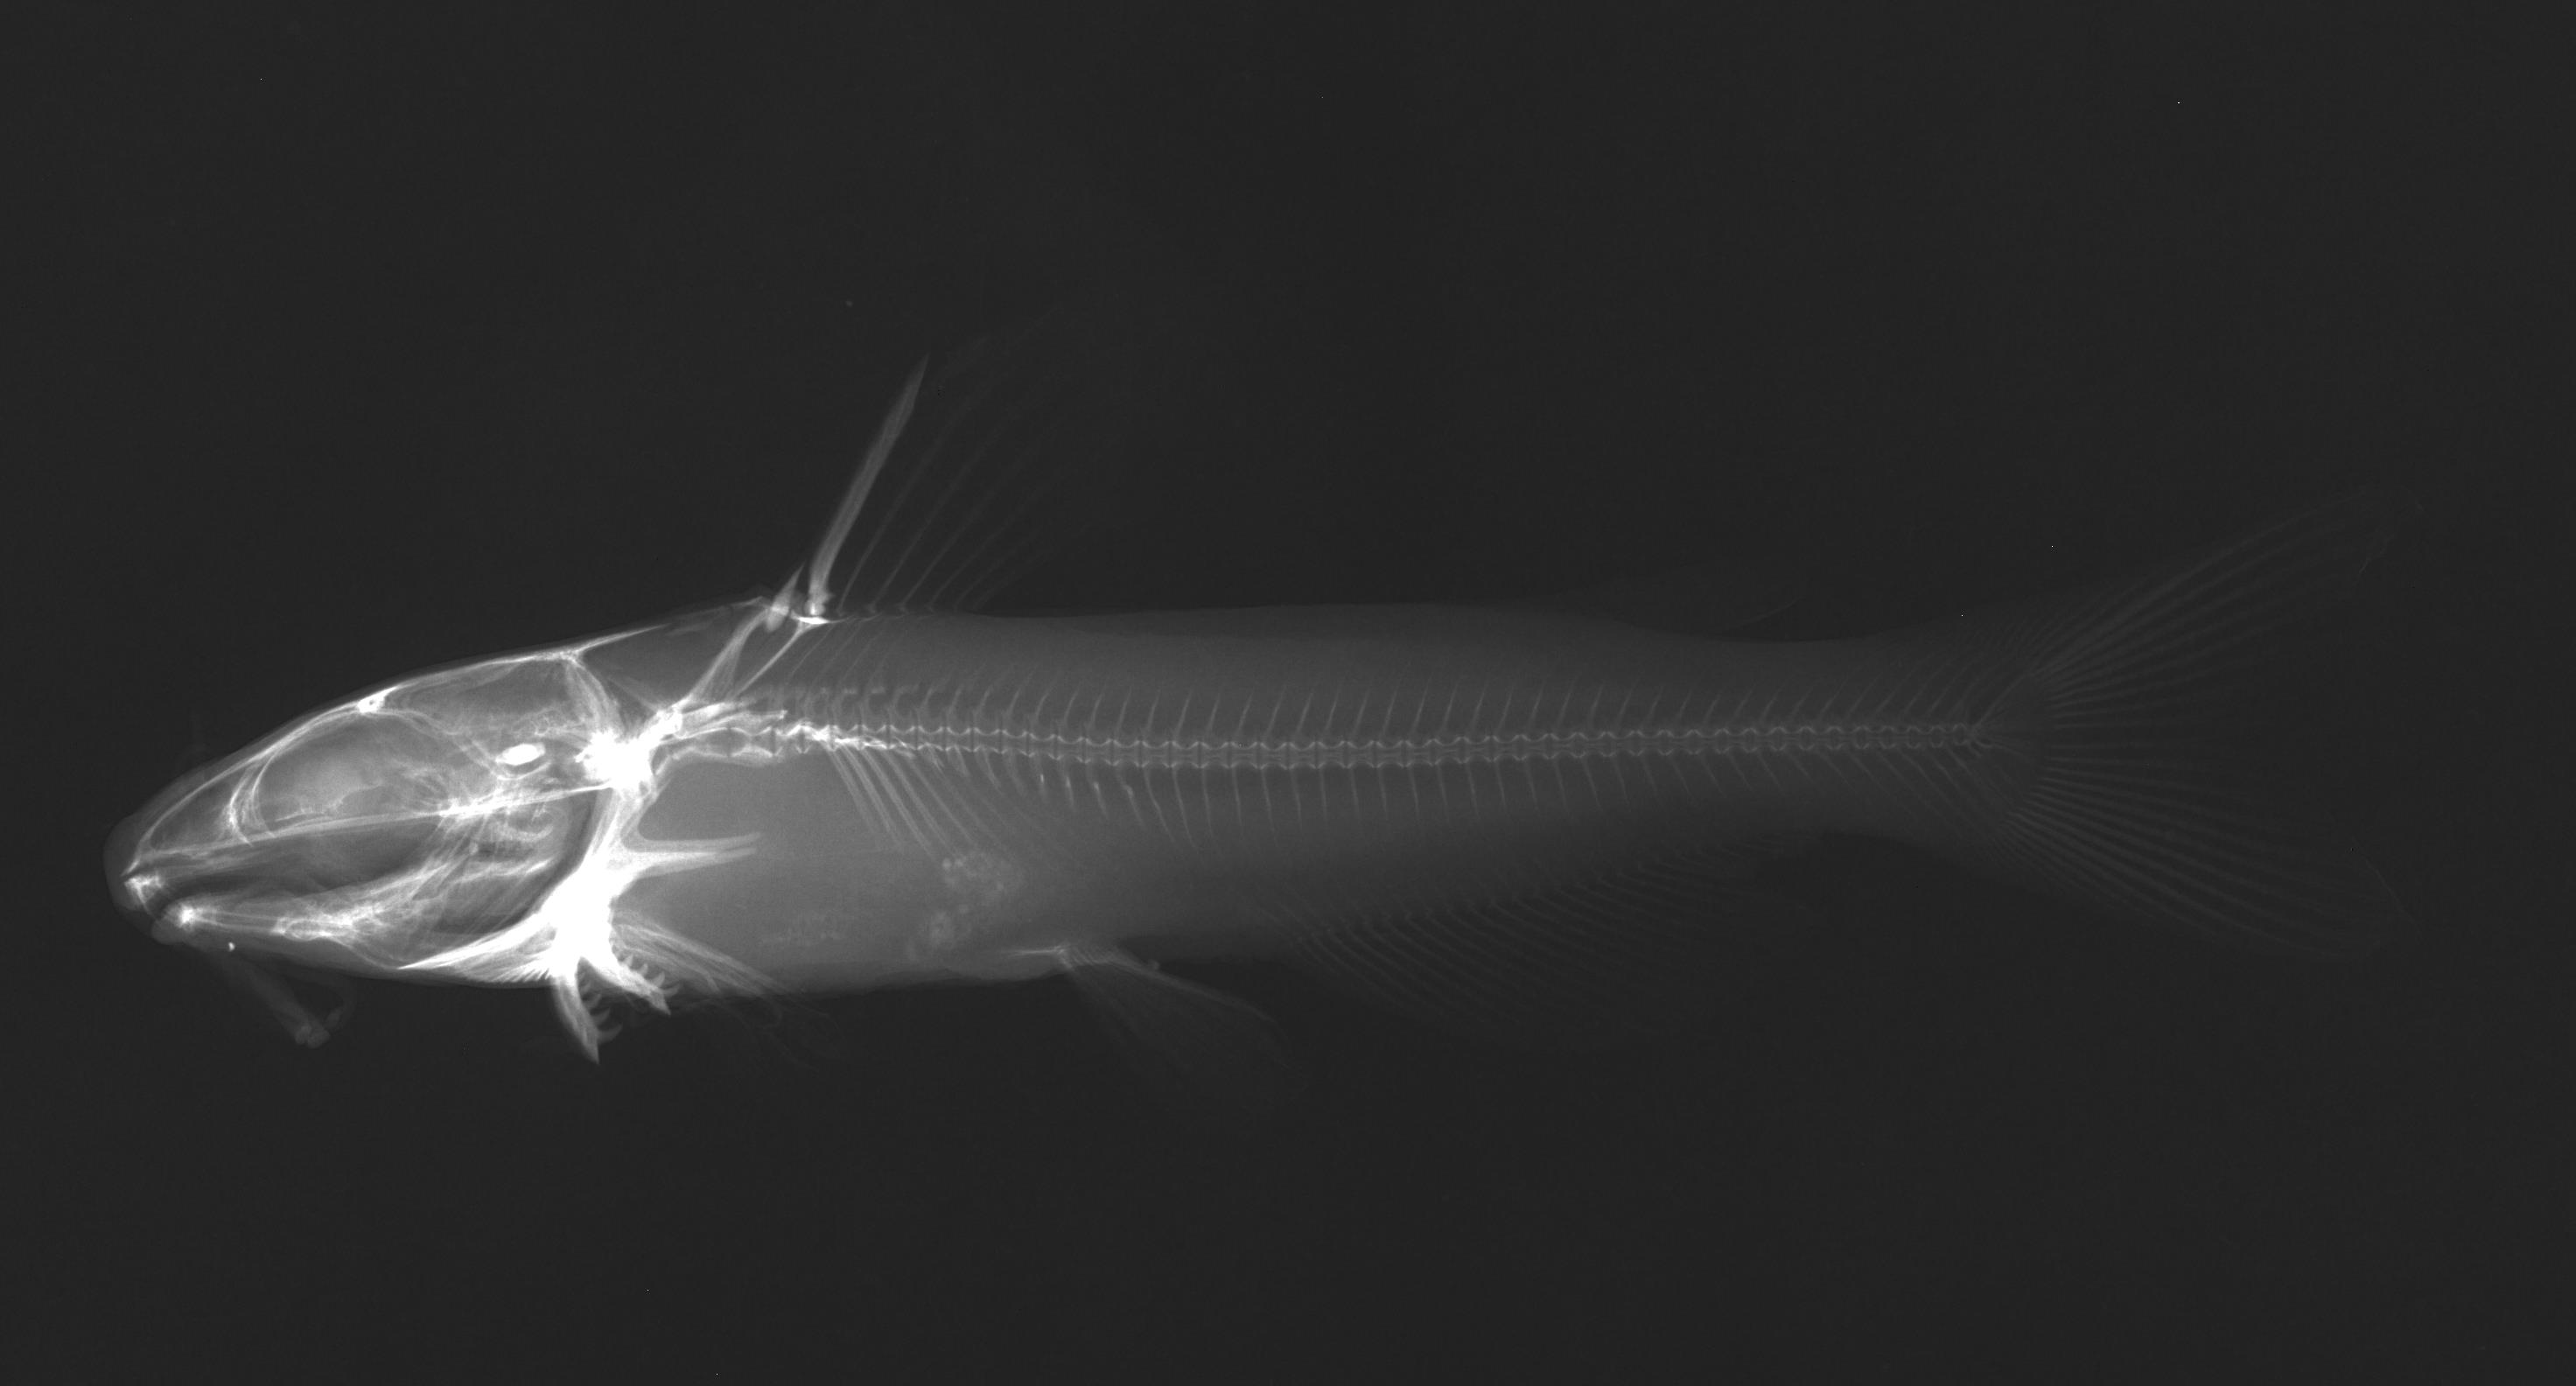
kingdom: Animalia
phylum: Chordata
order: Siluriformes
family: Ictaluridae
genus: Ictalurus
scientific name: Ictalurus punctatus
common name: Channel catfish
